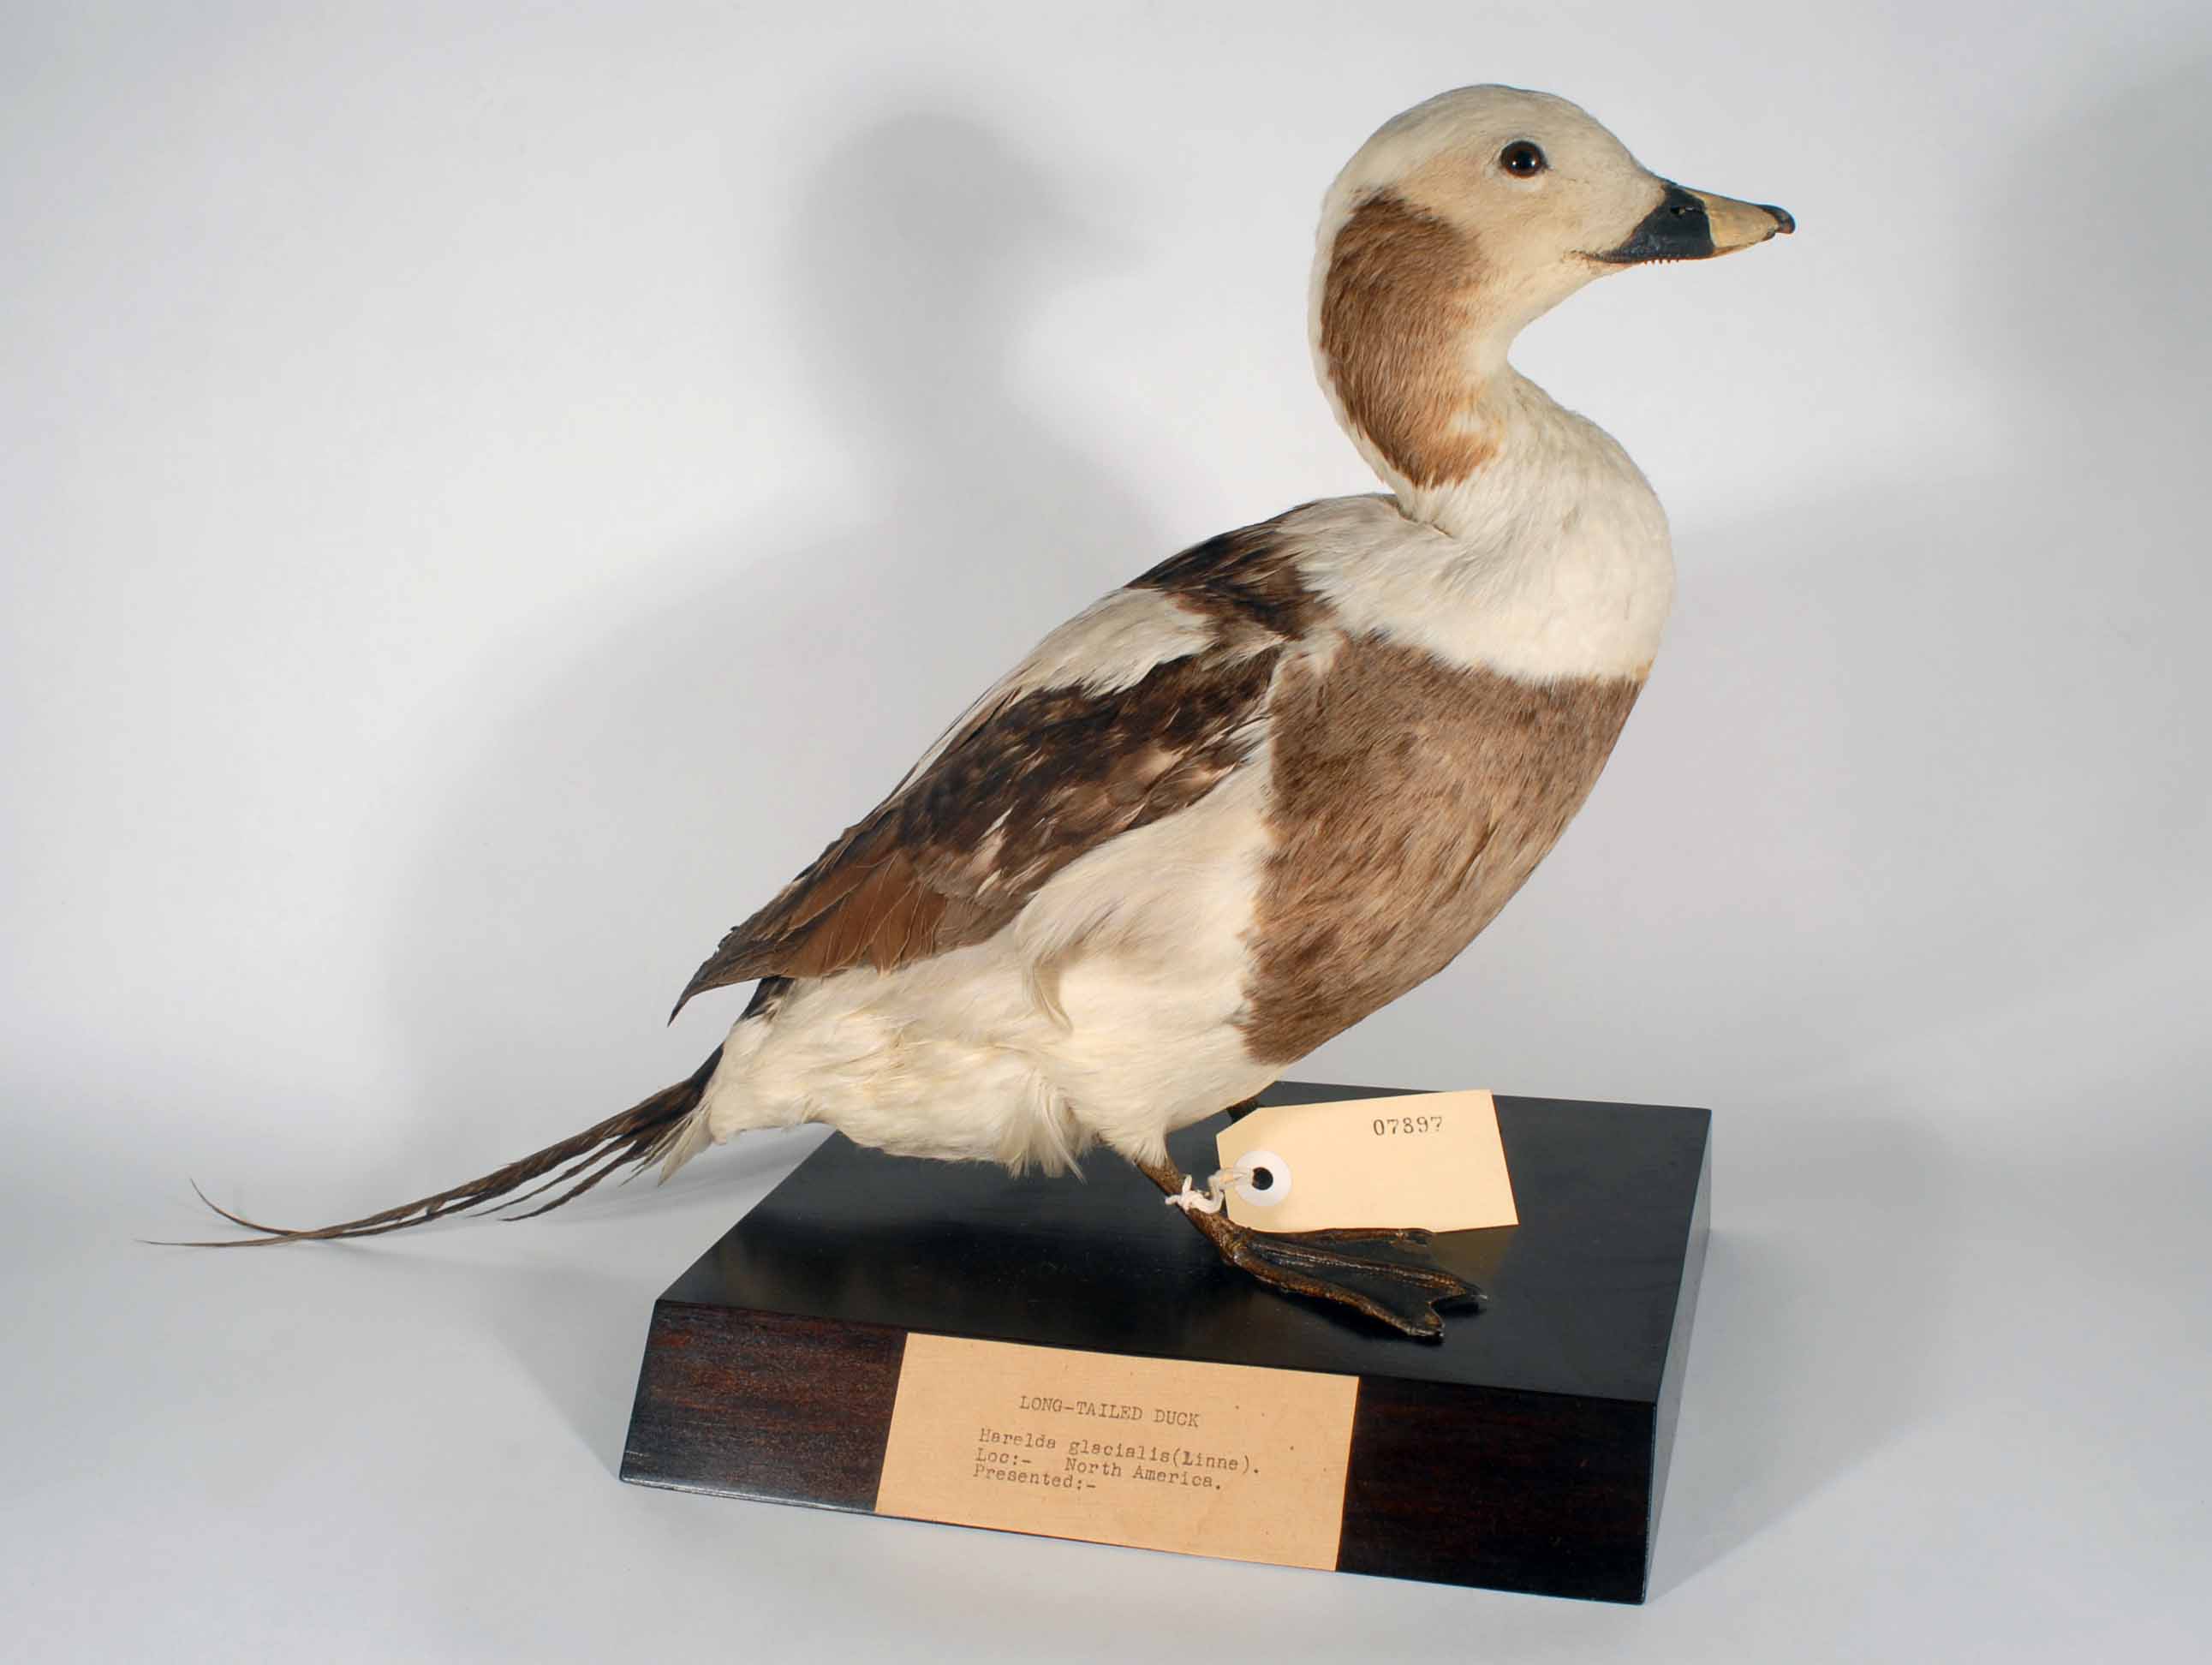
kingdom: Animalia
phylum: Chordata
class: Aves
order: Anseriformes
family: Anatidae
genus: Clangula
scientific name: Clangula hyemalis
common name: Long-tailed duck
